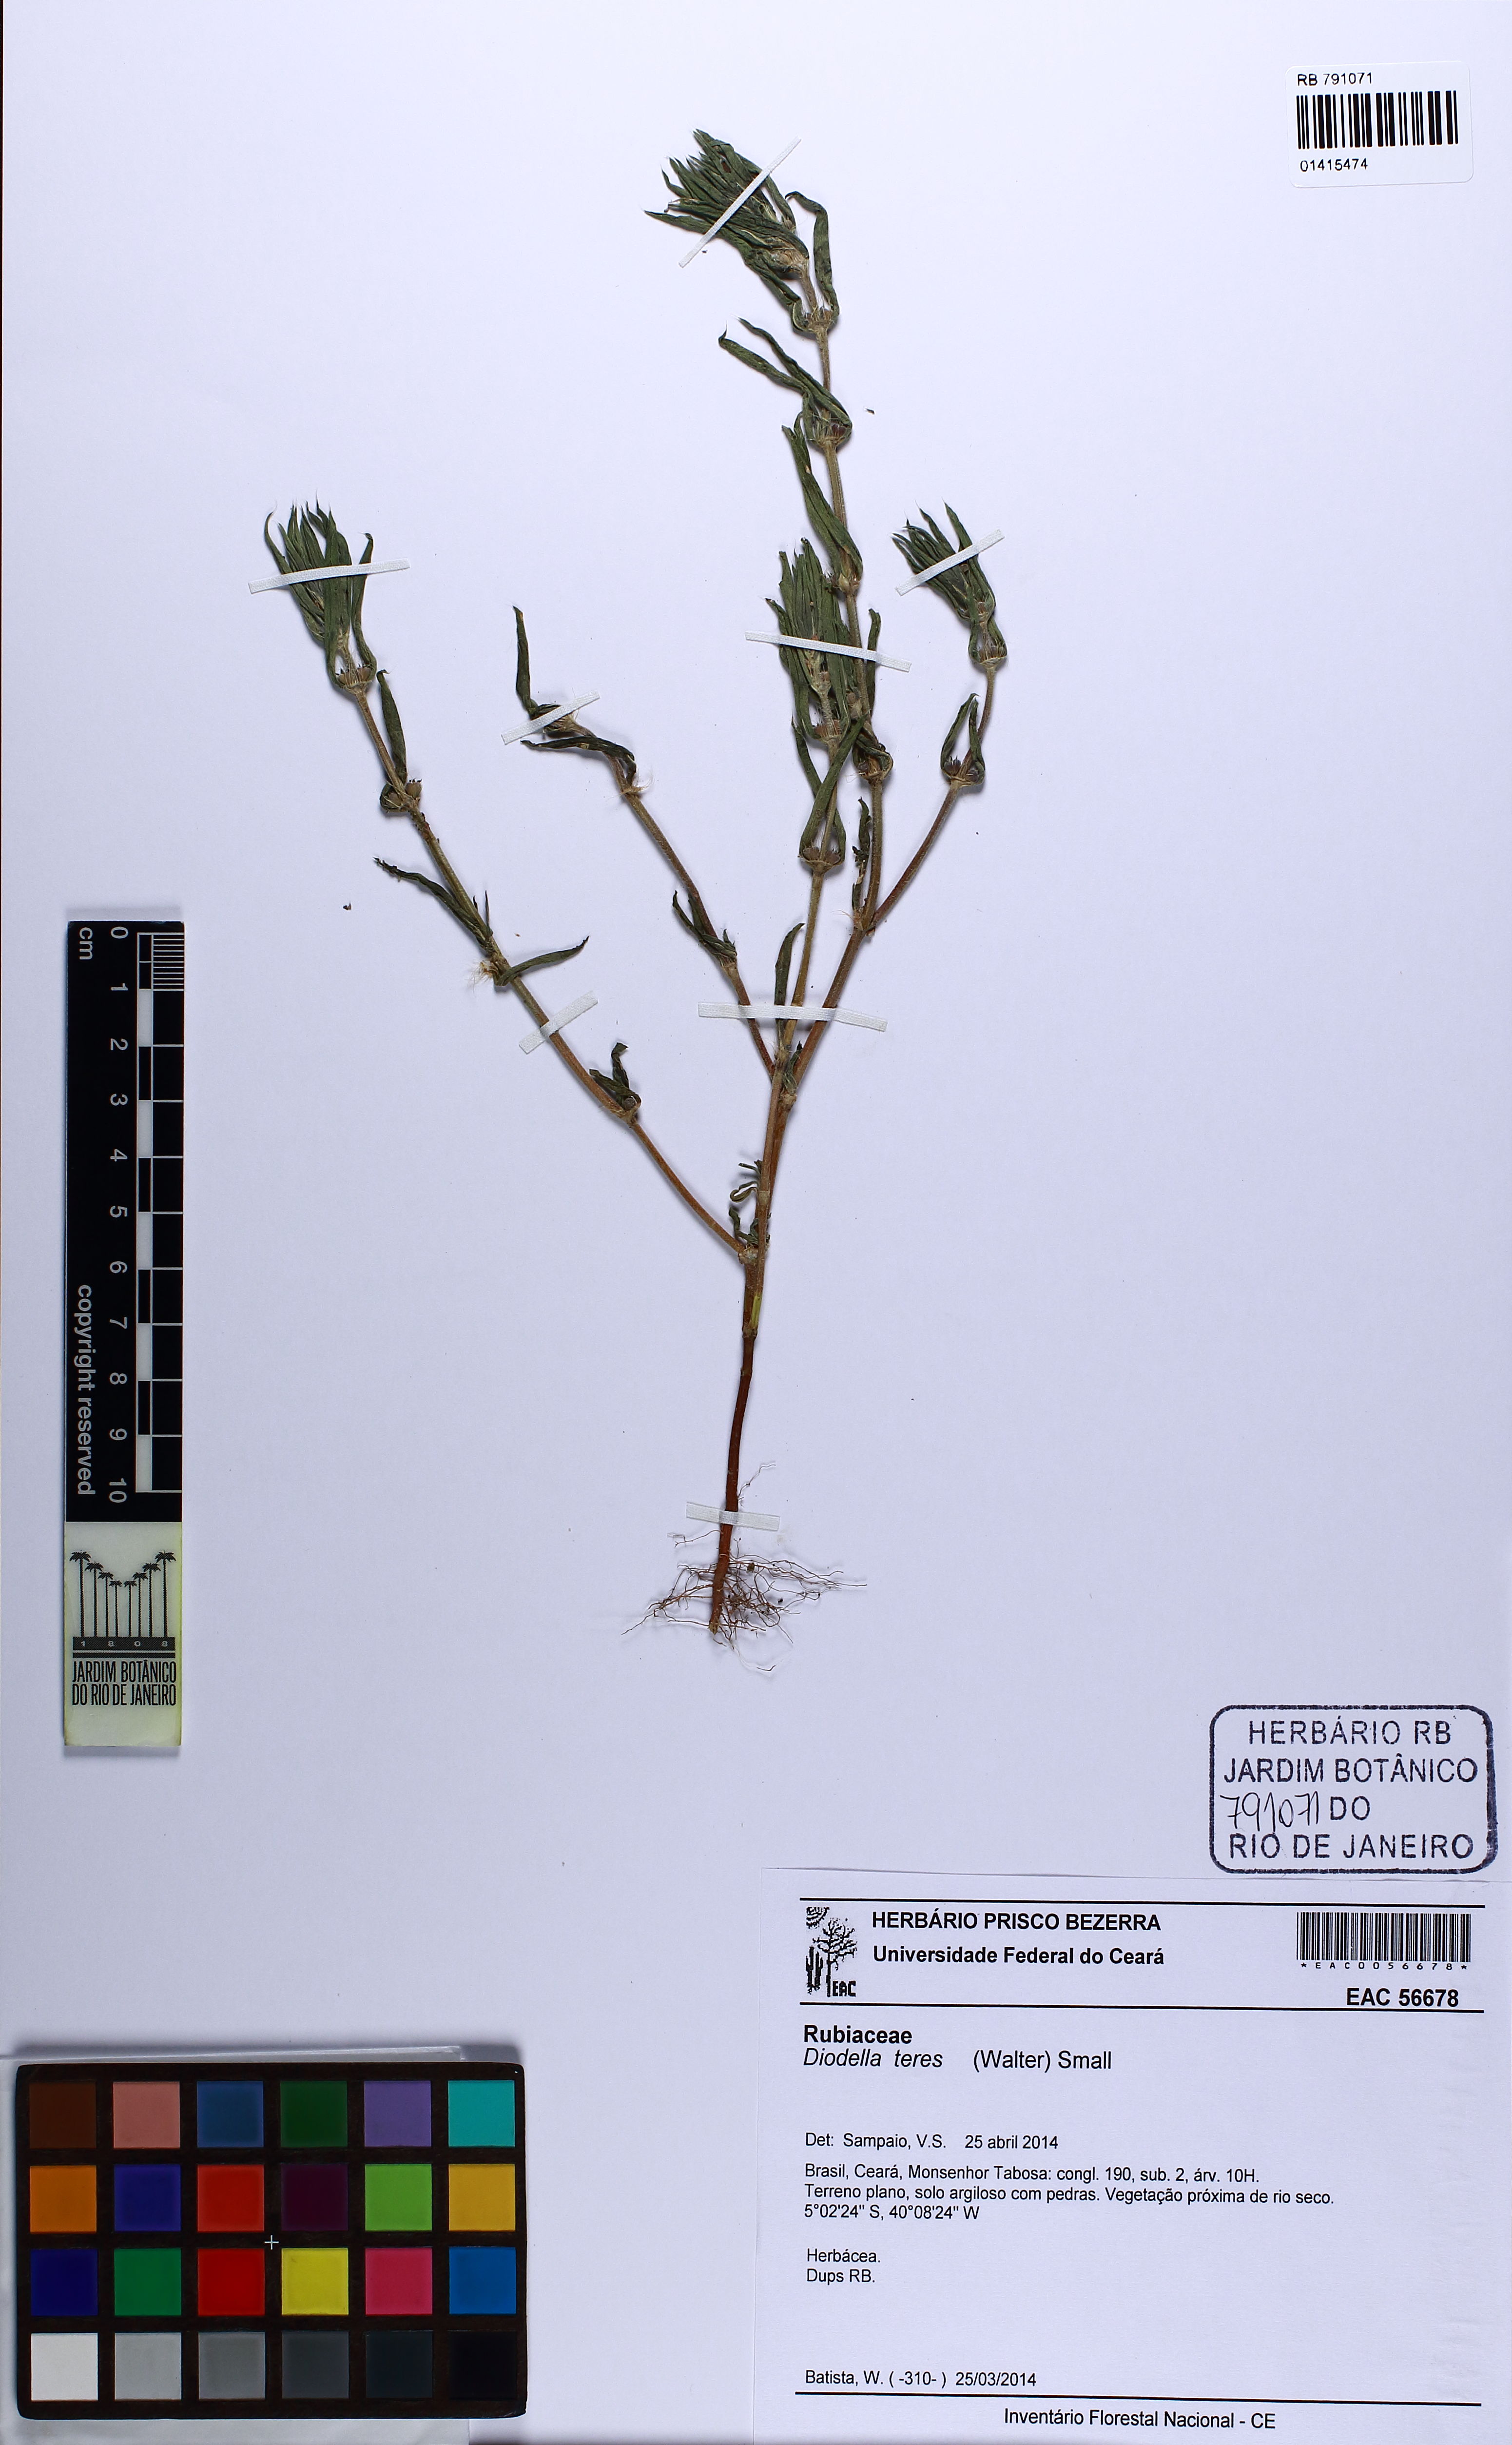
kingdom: Plantae
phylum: Tracheophyta
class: Magnoliopsida
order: Gentianales
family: Rubiaceae
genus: Hexasepalum
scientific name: Hexasepalum teres
